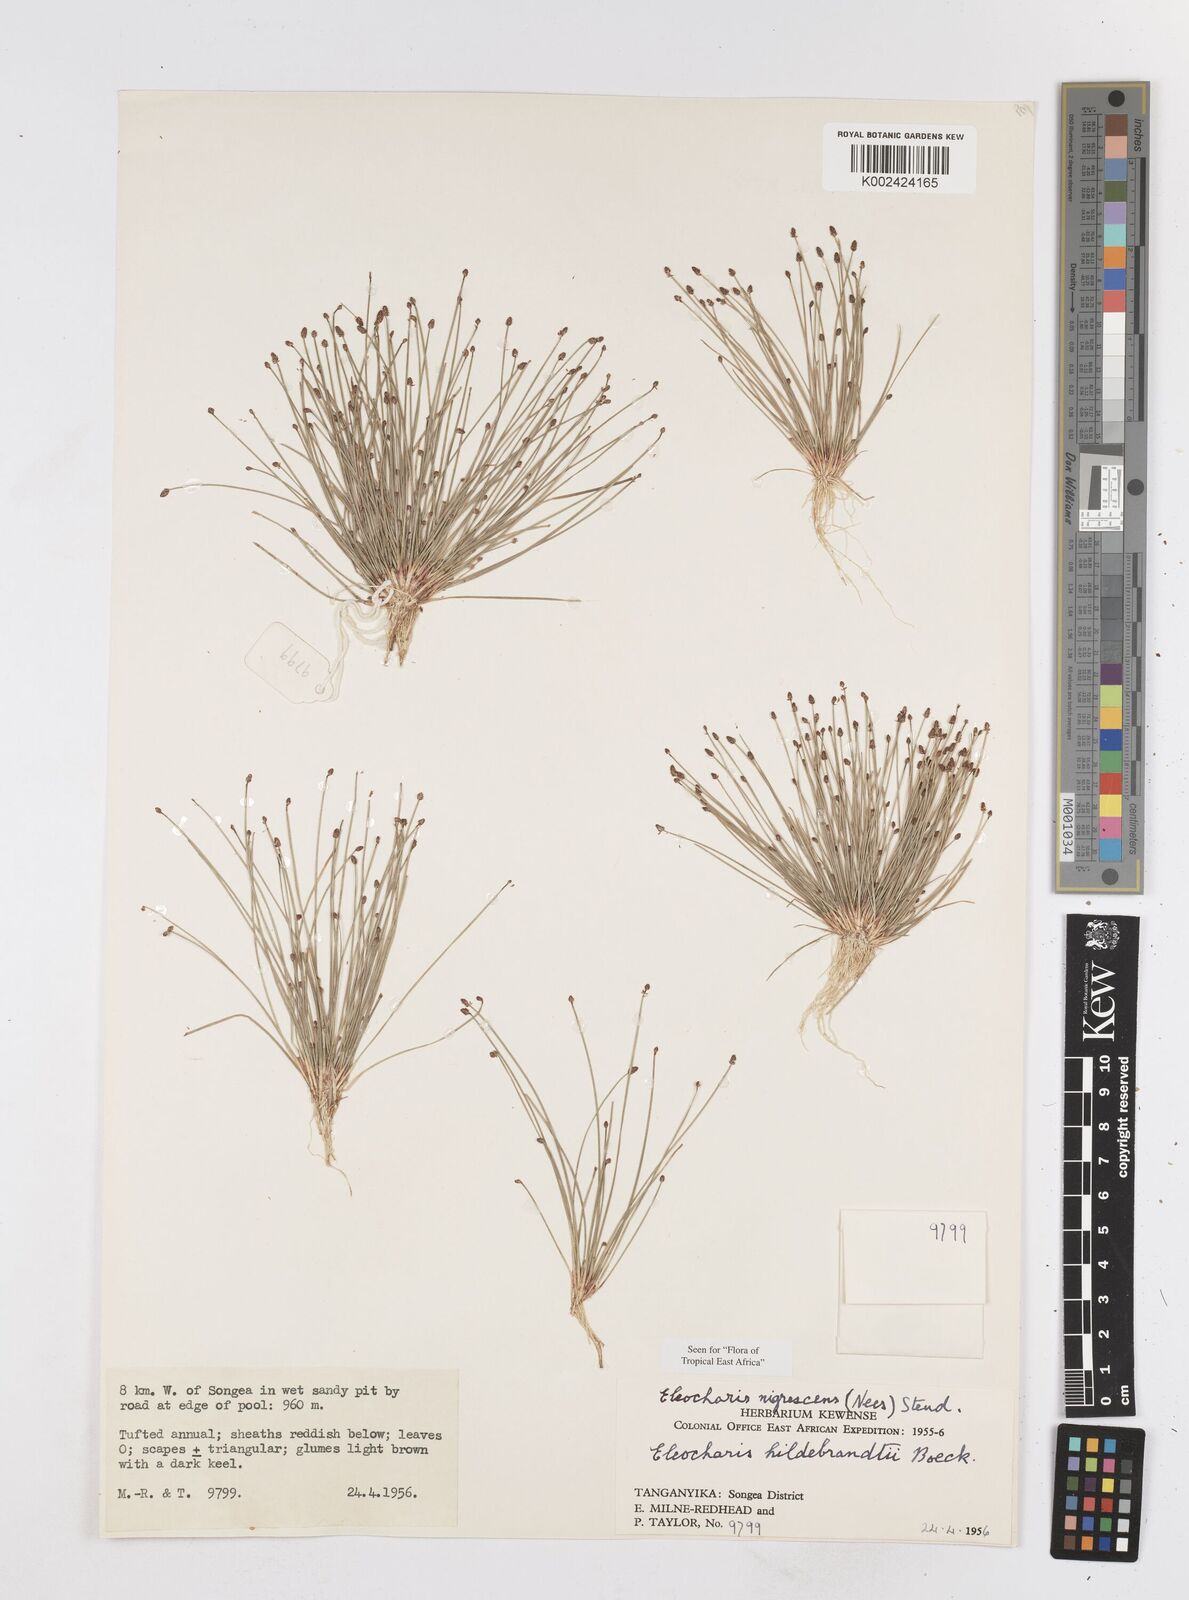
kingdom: Plantae
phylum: Tracheophyta
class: Liliopsida
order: Poales
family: Cyperaceae
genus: Eleocharis
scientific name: Eleocharis nigrescens
